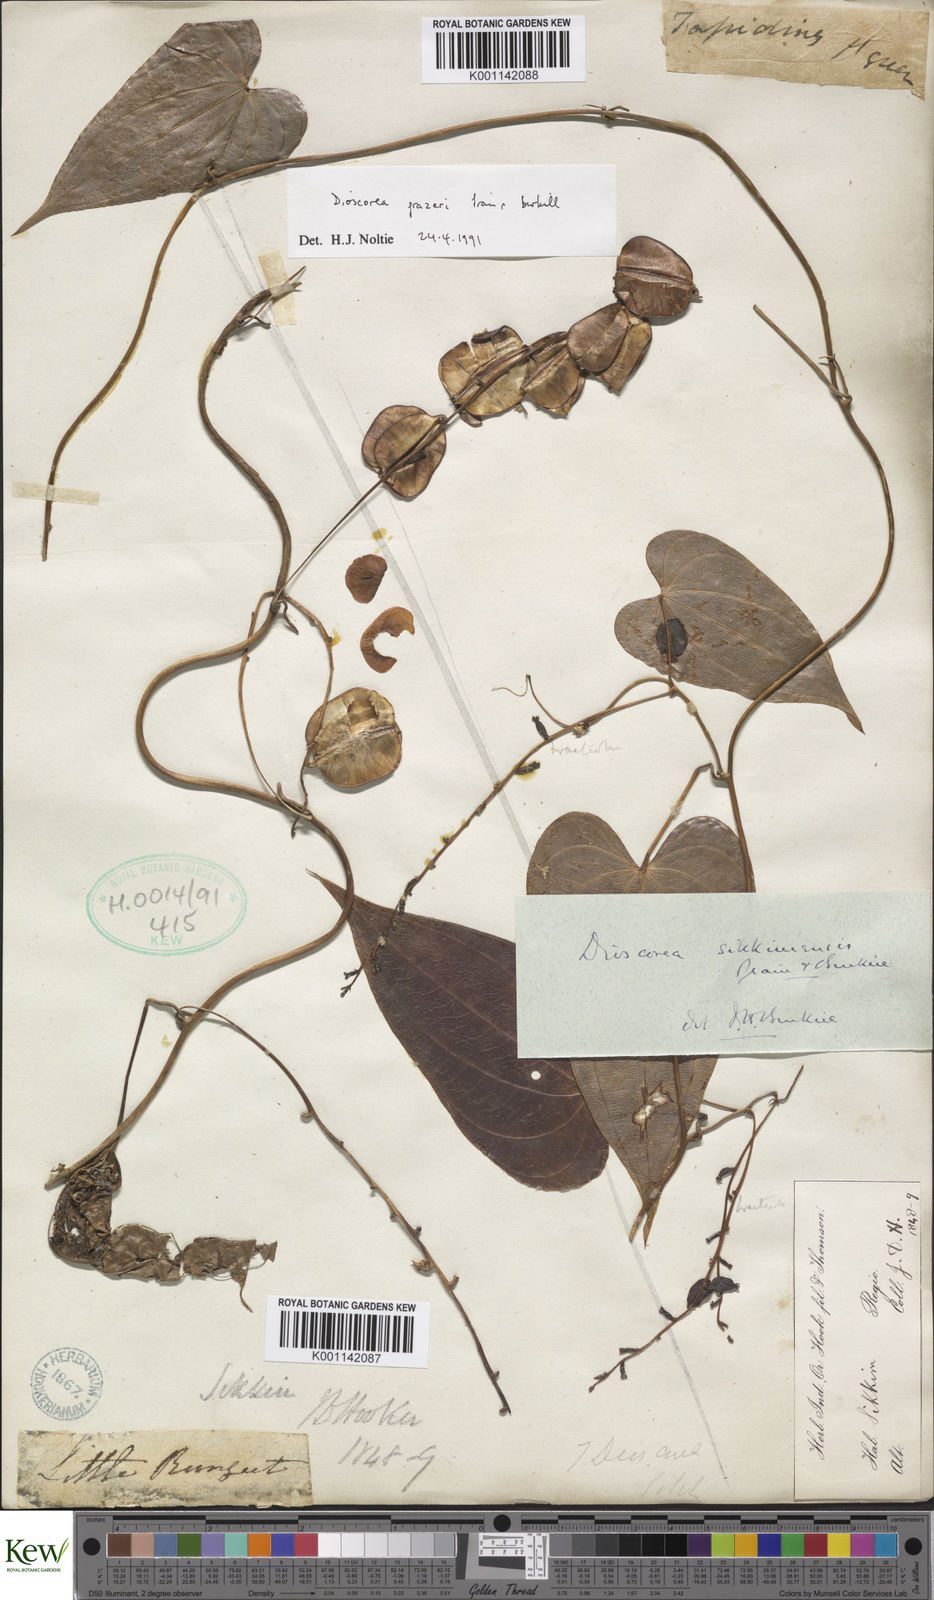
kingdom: Plantae
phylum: Tracheophyta
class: Liliopsida
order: Dioscoreales
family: Dioscoreaceae
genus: Dioscorea
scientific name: Dioscorea prazeri
